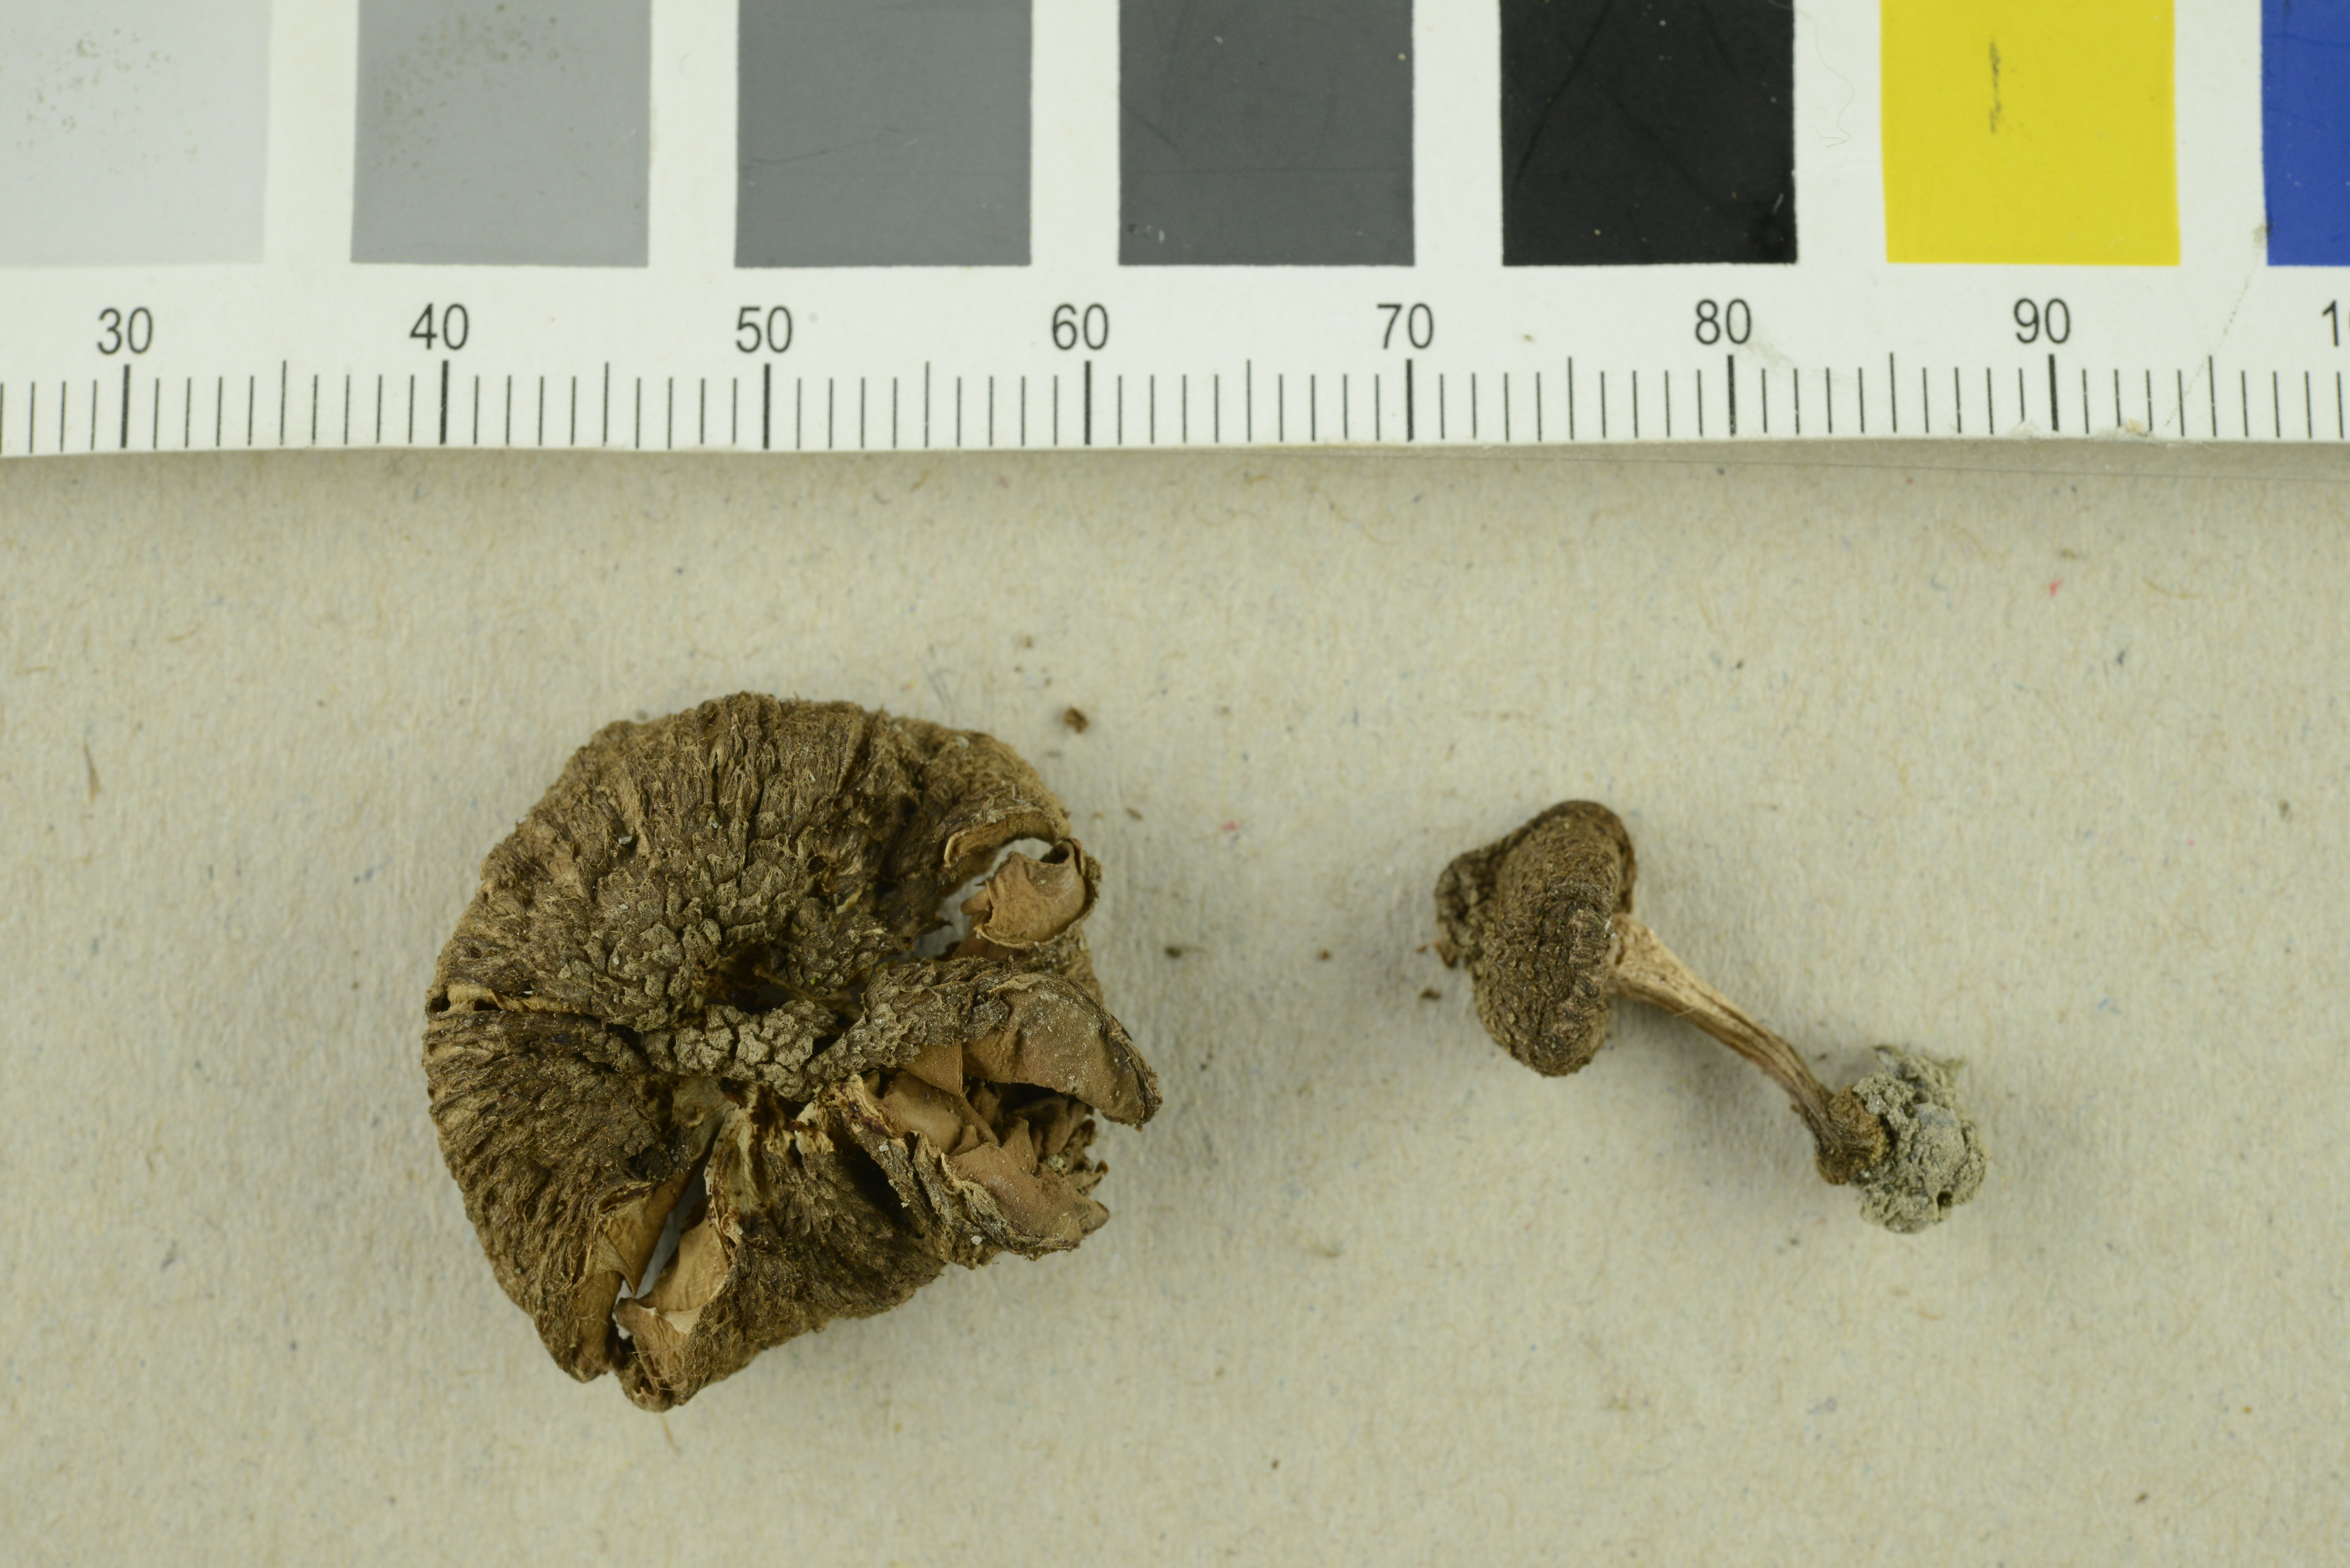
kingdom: Fungi
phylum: Basidiomycota
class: Agaricomycetes
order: Agaricales
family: Inocybaceae
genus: Inocybe
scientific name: Inocybe lacera
